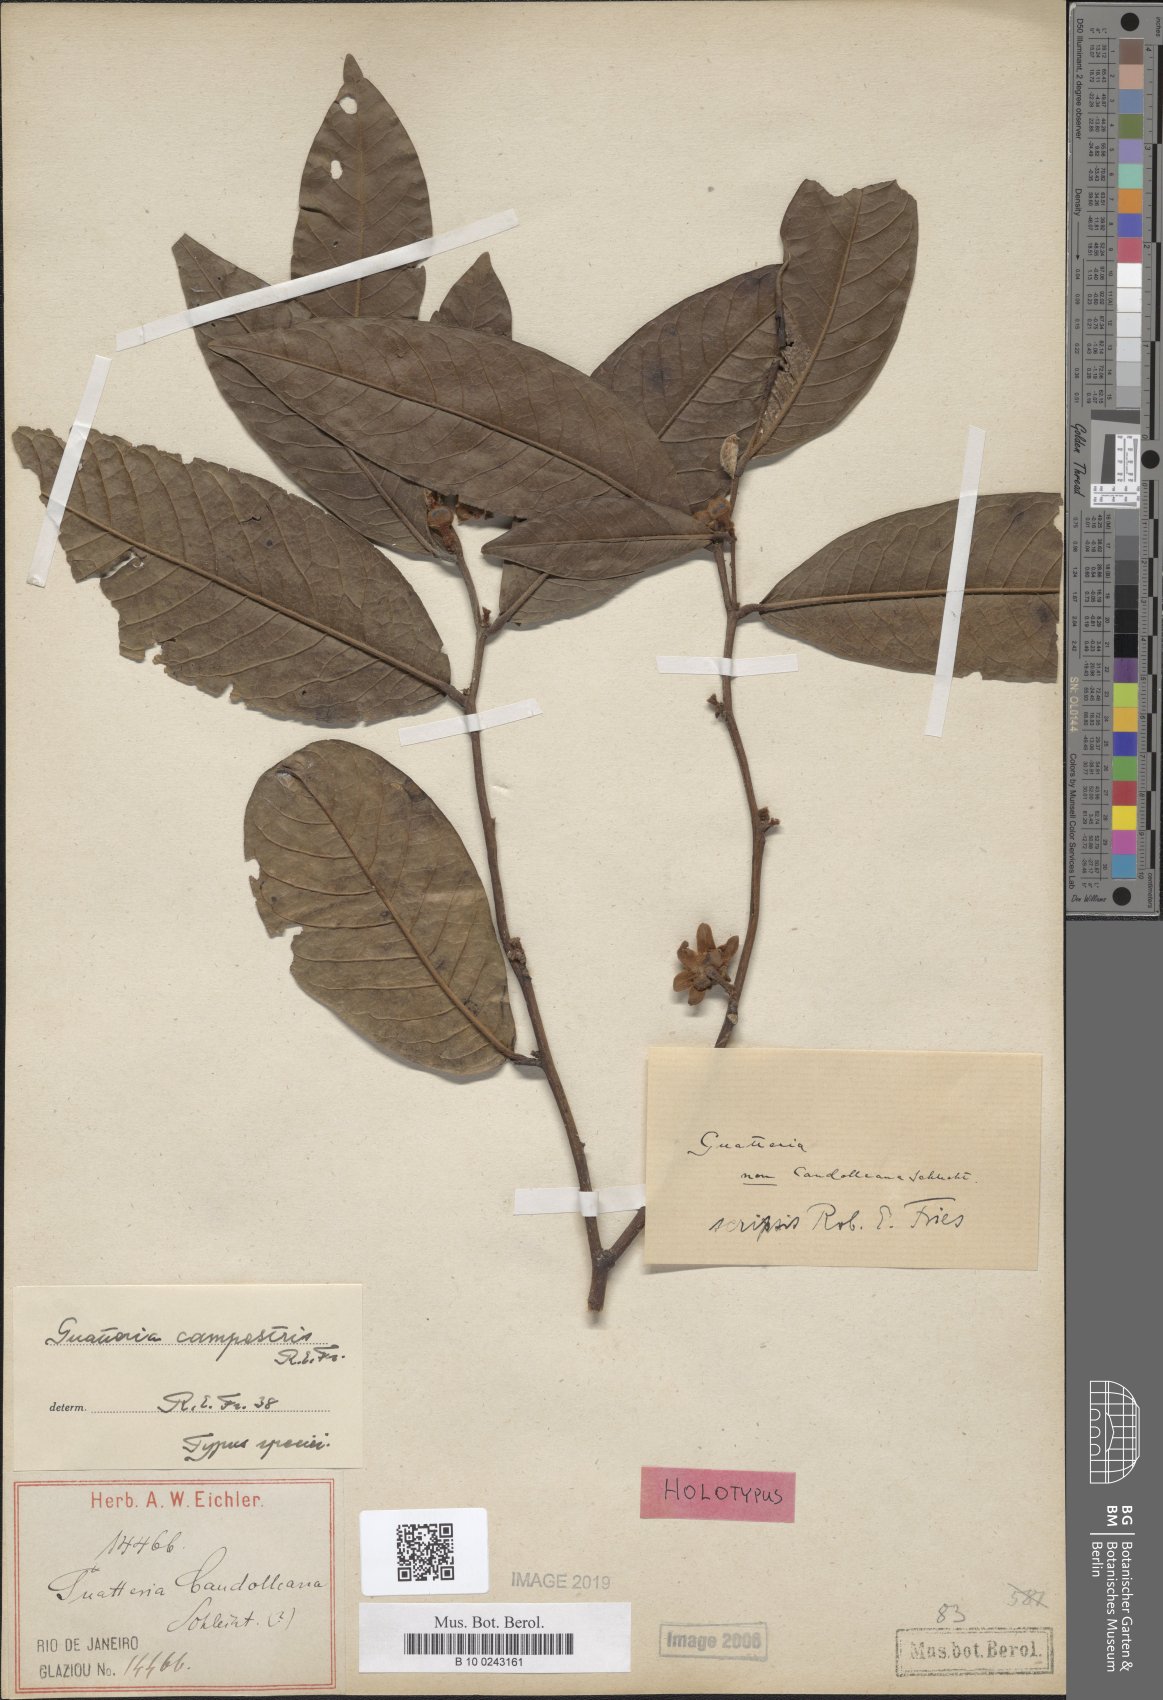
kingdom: Plantae
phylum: Tracheophyta
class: Magnoliopsida
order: Magnoliales
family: Annonaceae
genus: Guatteria
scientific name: Guatteria campestris
